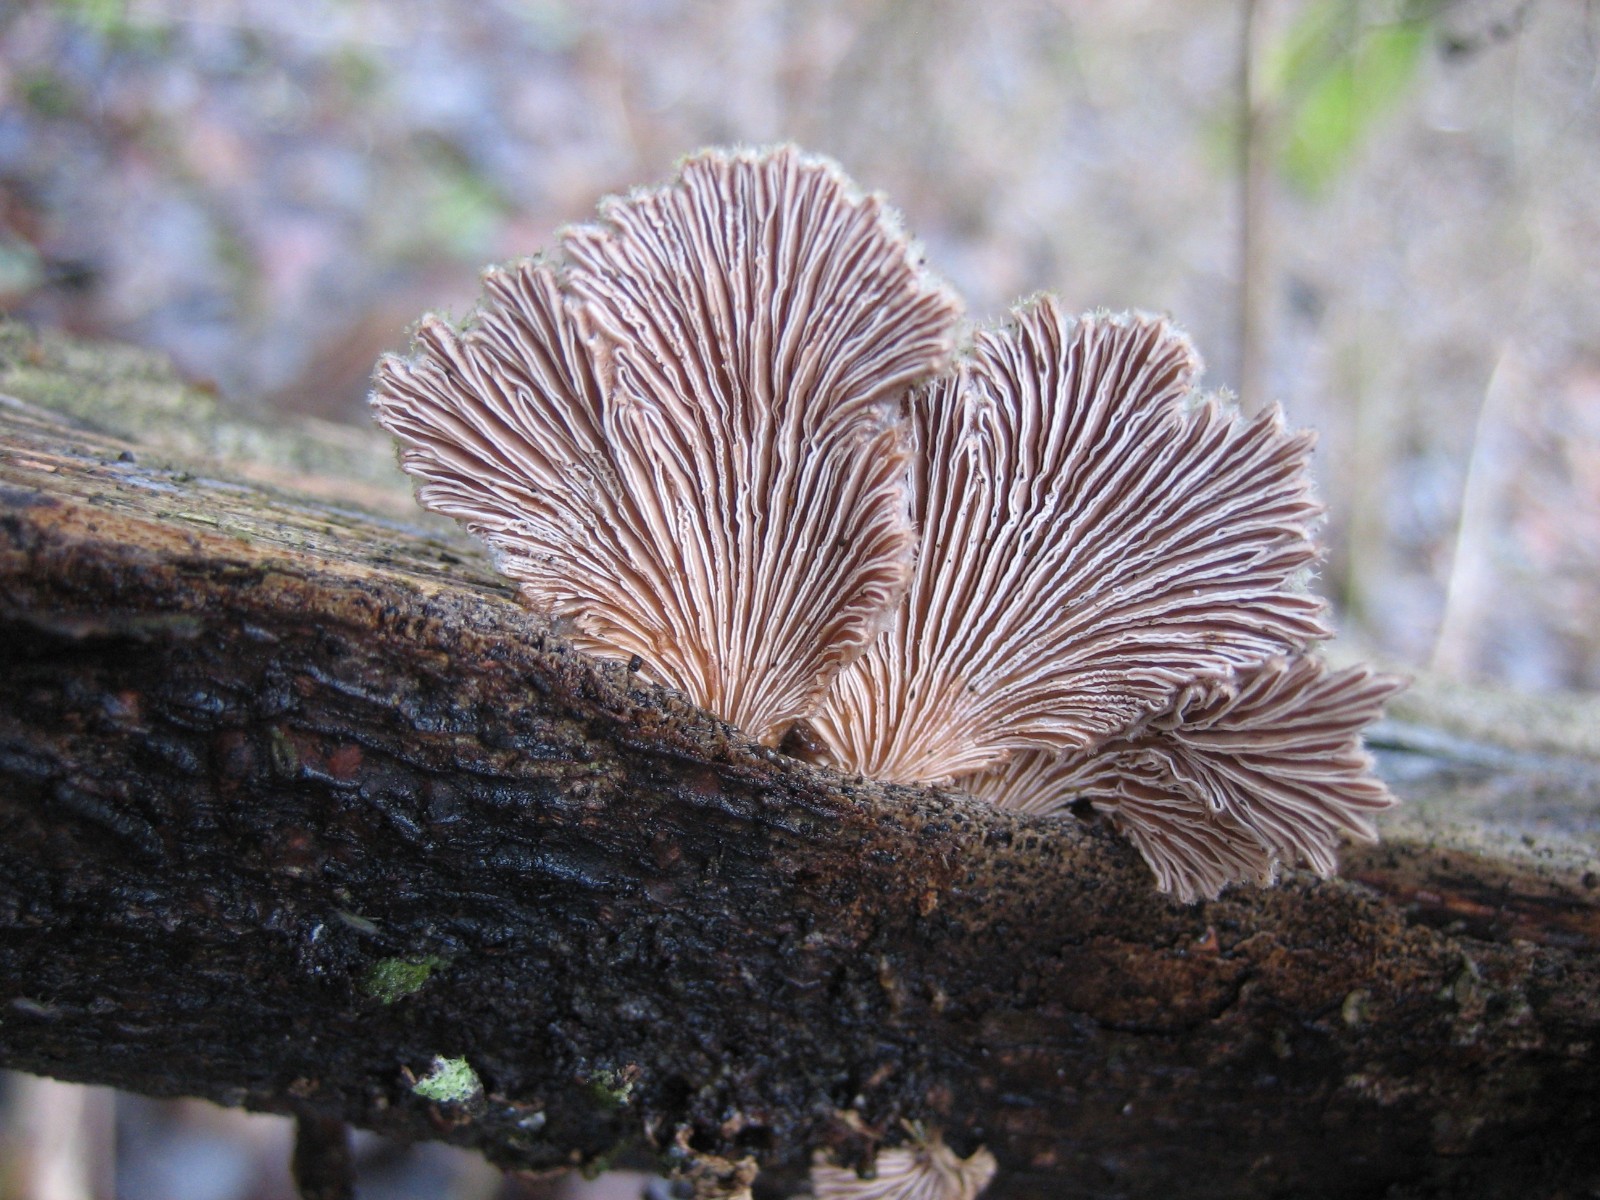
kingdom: Fungi
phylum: Basidiomycota
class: Agaricomycetes
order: Agaricales
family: Schizophyllaceae
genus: Schizophyllum
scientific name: Schizophyllum commune
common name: kløvblad
